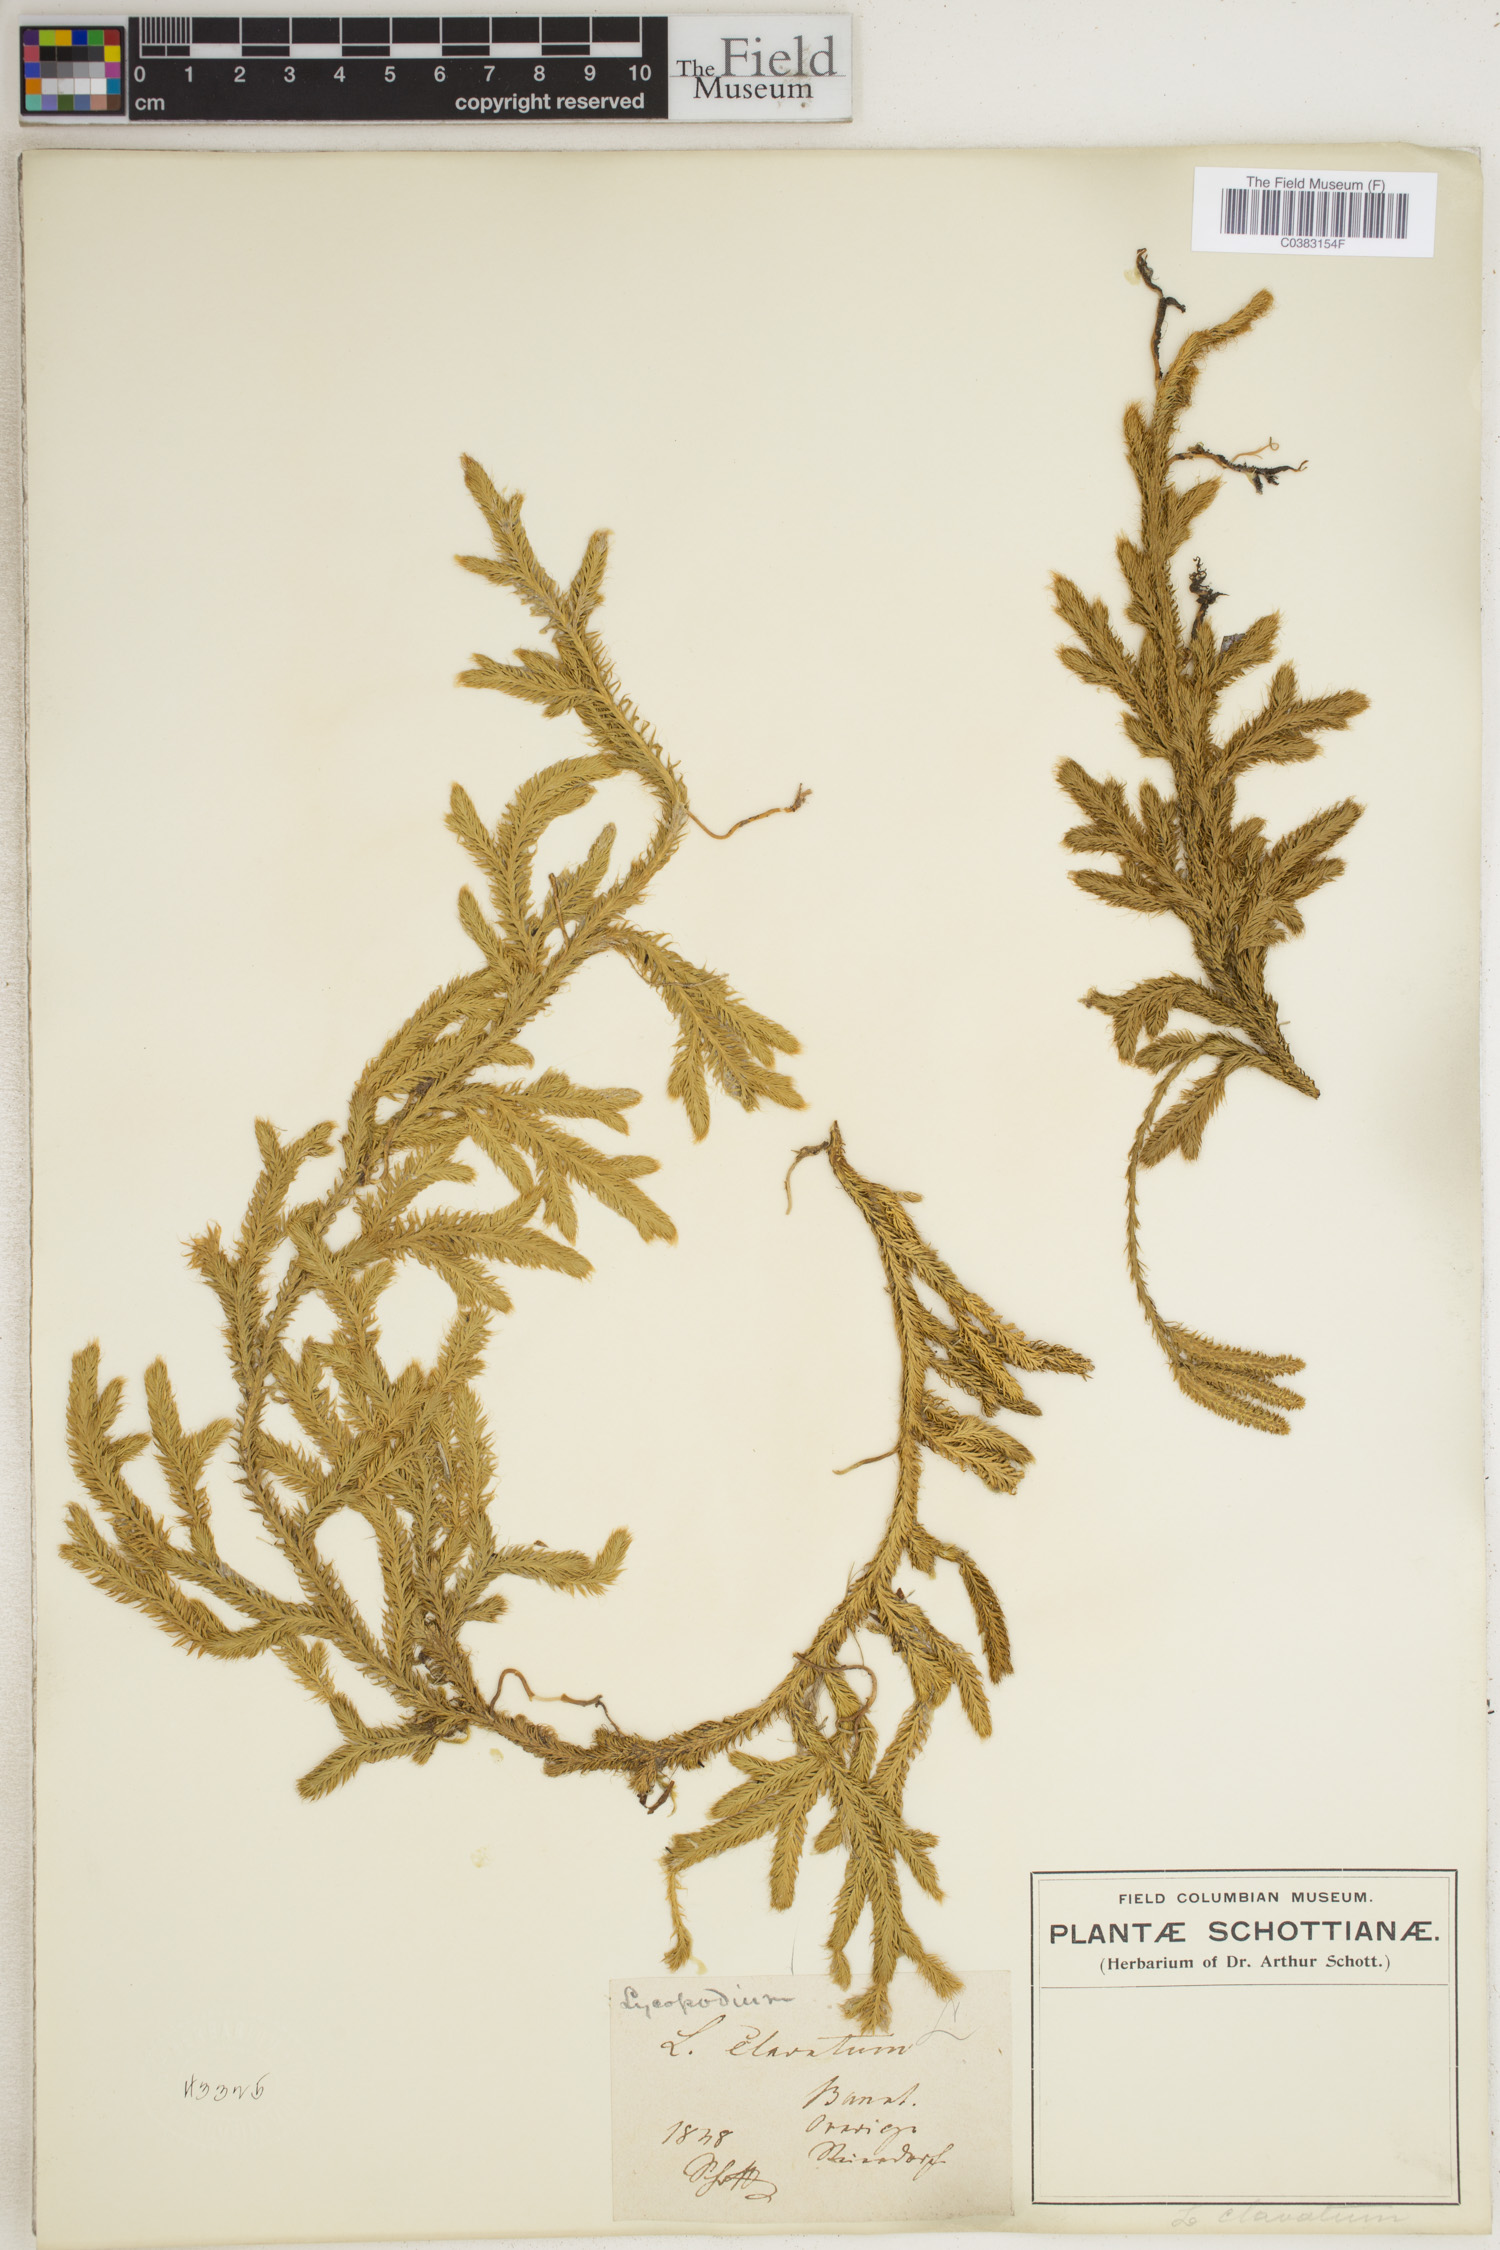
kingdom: Plantae
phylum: Tracheophyta
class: Lycopodiopsida
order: Lycopodiales
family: Lycopodiaceae
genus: Lycopodium
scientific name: Lycopodium clavatum
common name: Stag's-horn clubmoss
